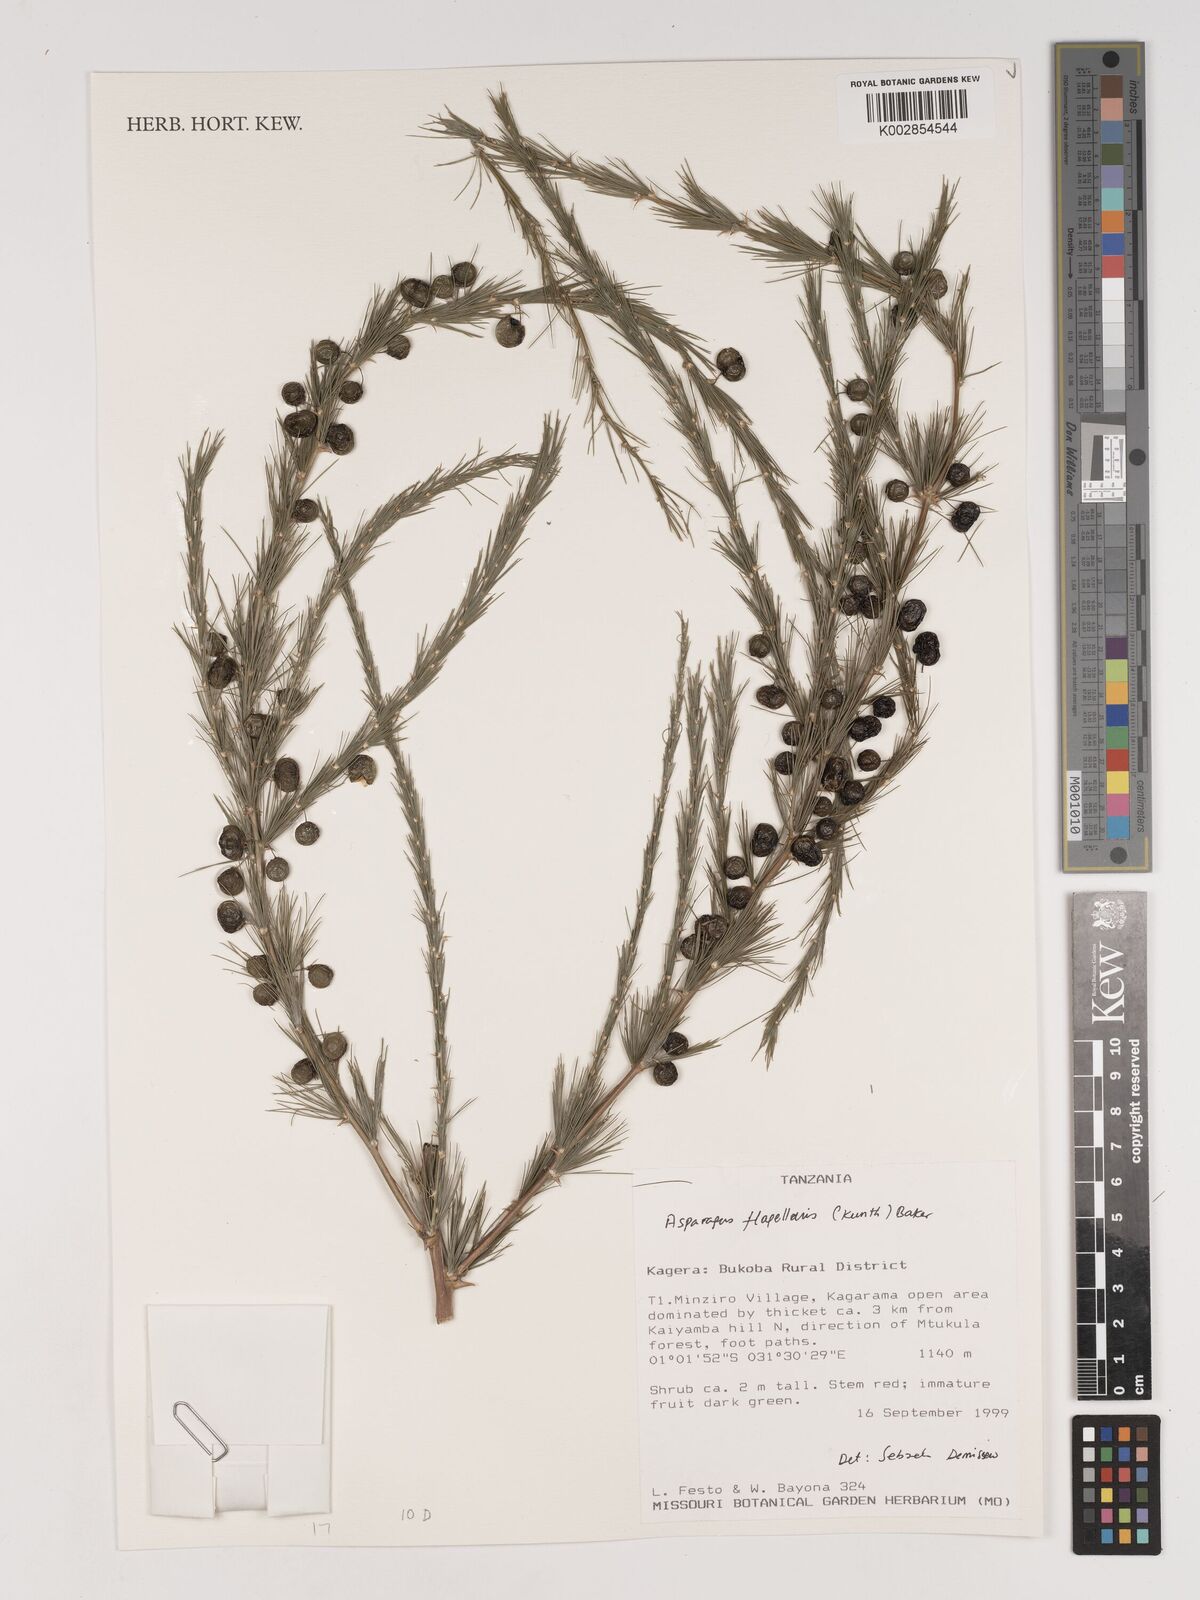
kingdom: Plantae
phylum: Tracheophyta
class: Liliopsida
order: Asparagales
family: Asparagaceae
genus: Asparagus
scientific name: Asparagus flagellaris
